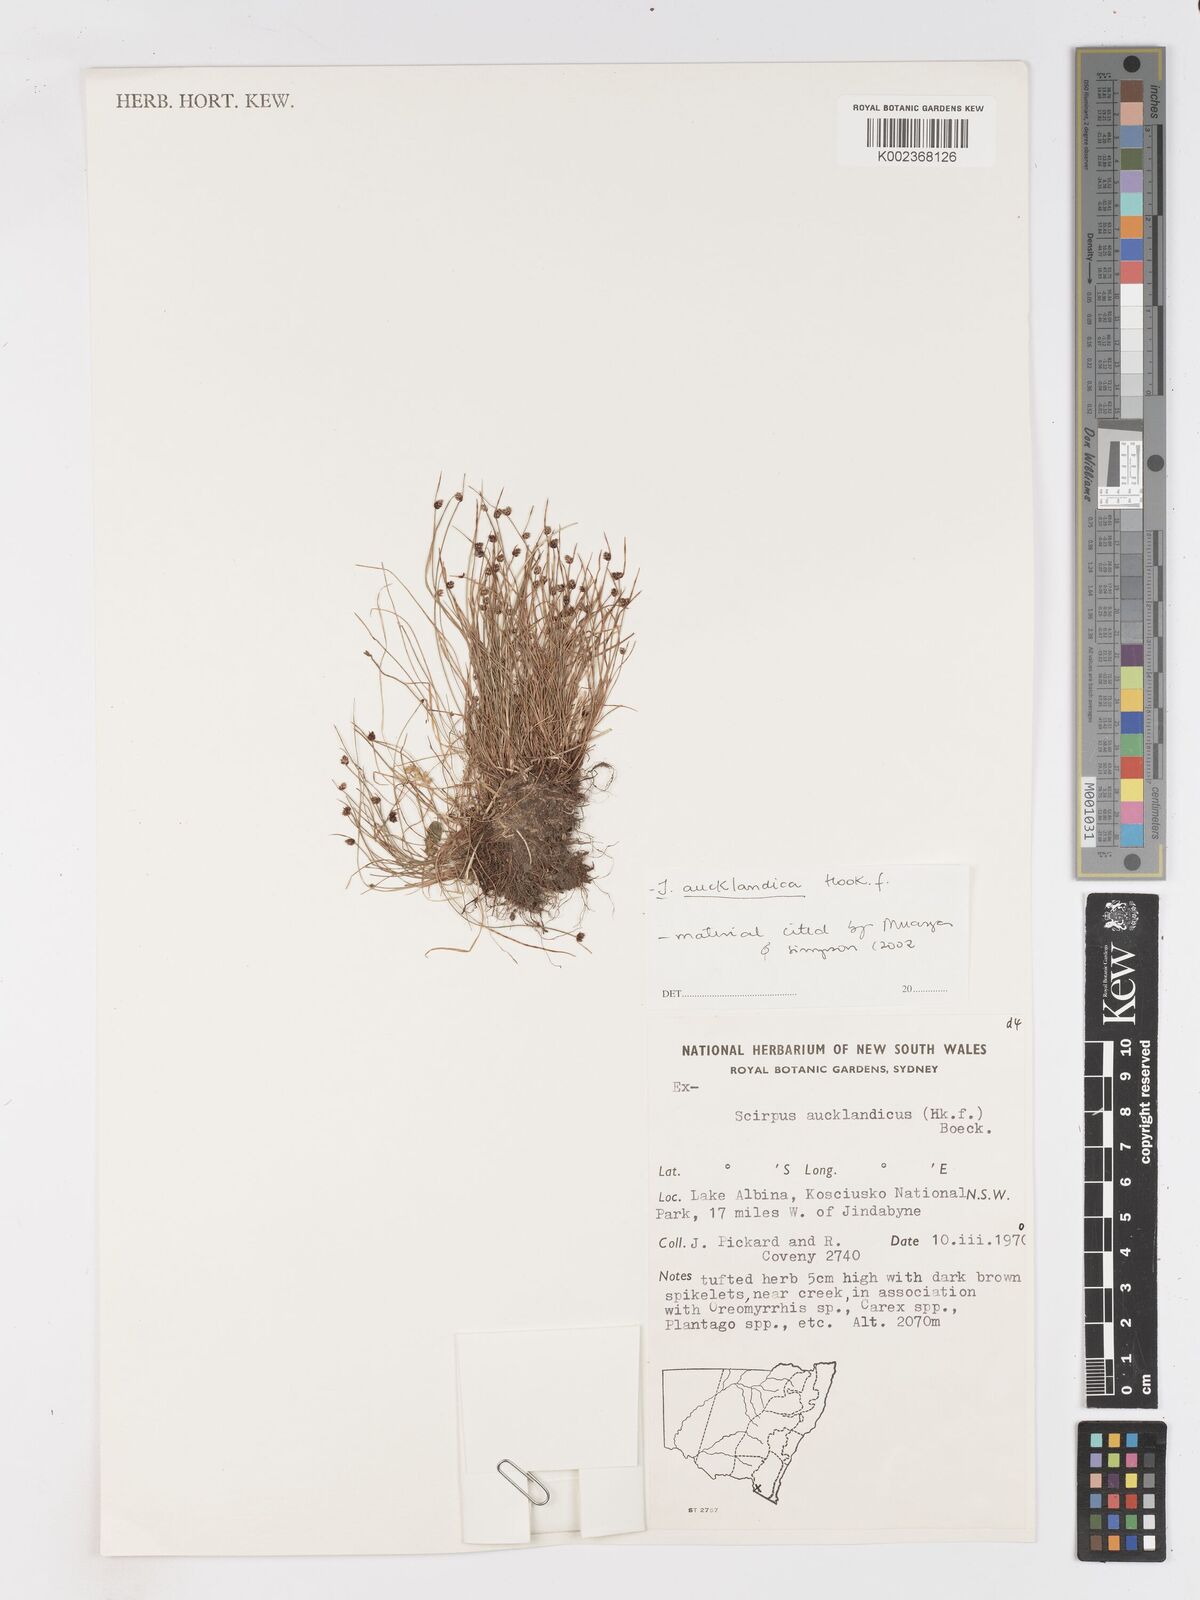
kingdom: Plantae
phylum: Tracheophyta
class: Liliopsida
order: Poales
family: Cyperaceae
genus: Isolepis
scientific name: Isolepis aucklandica
